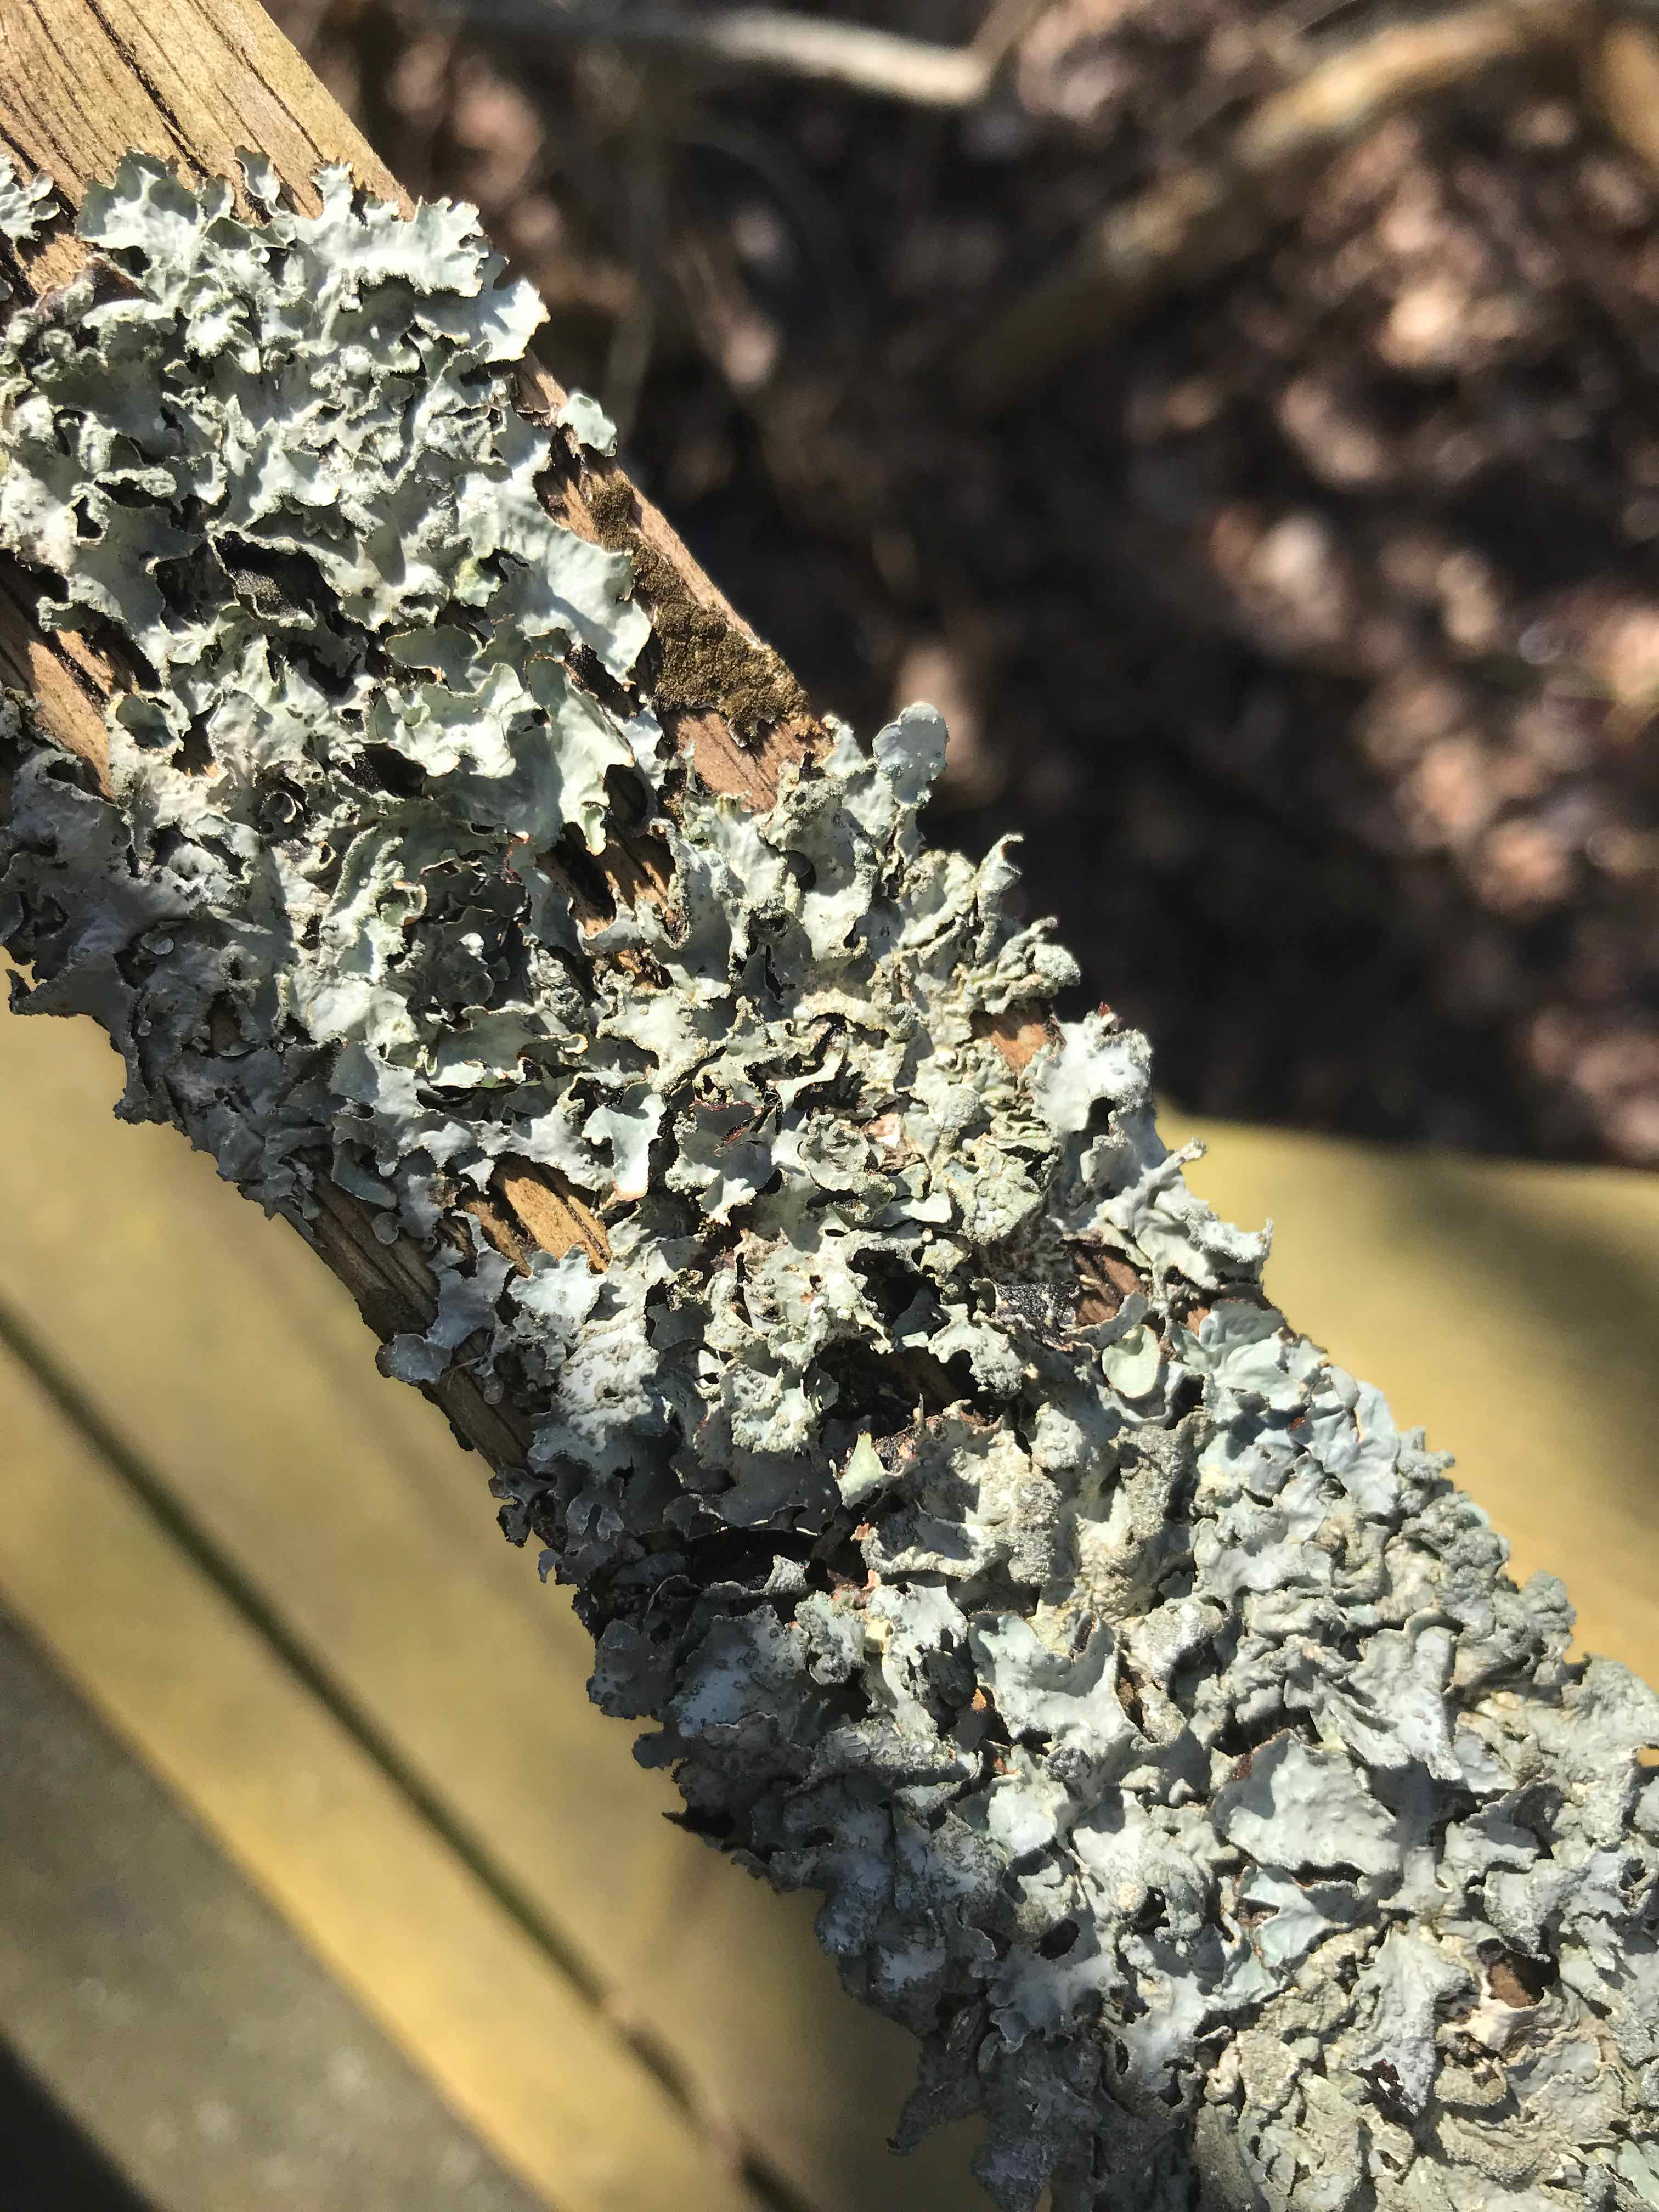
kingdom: Fungi
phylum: Ascomycota
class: Lecanoromycetes
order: Lecanorales
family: Parmeliaceae
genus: Parmelia
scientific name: Parmelia sulcata
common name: rynket skållav
